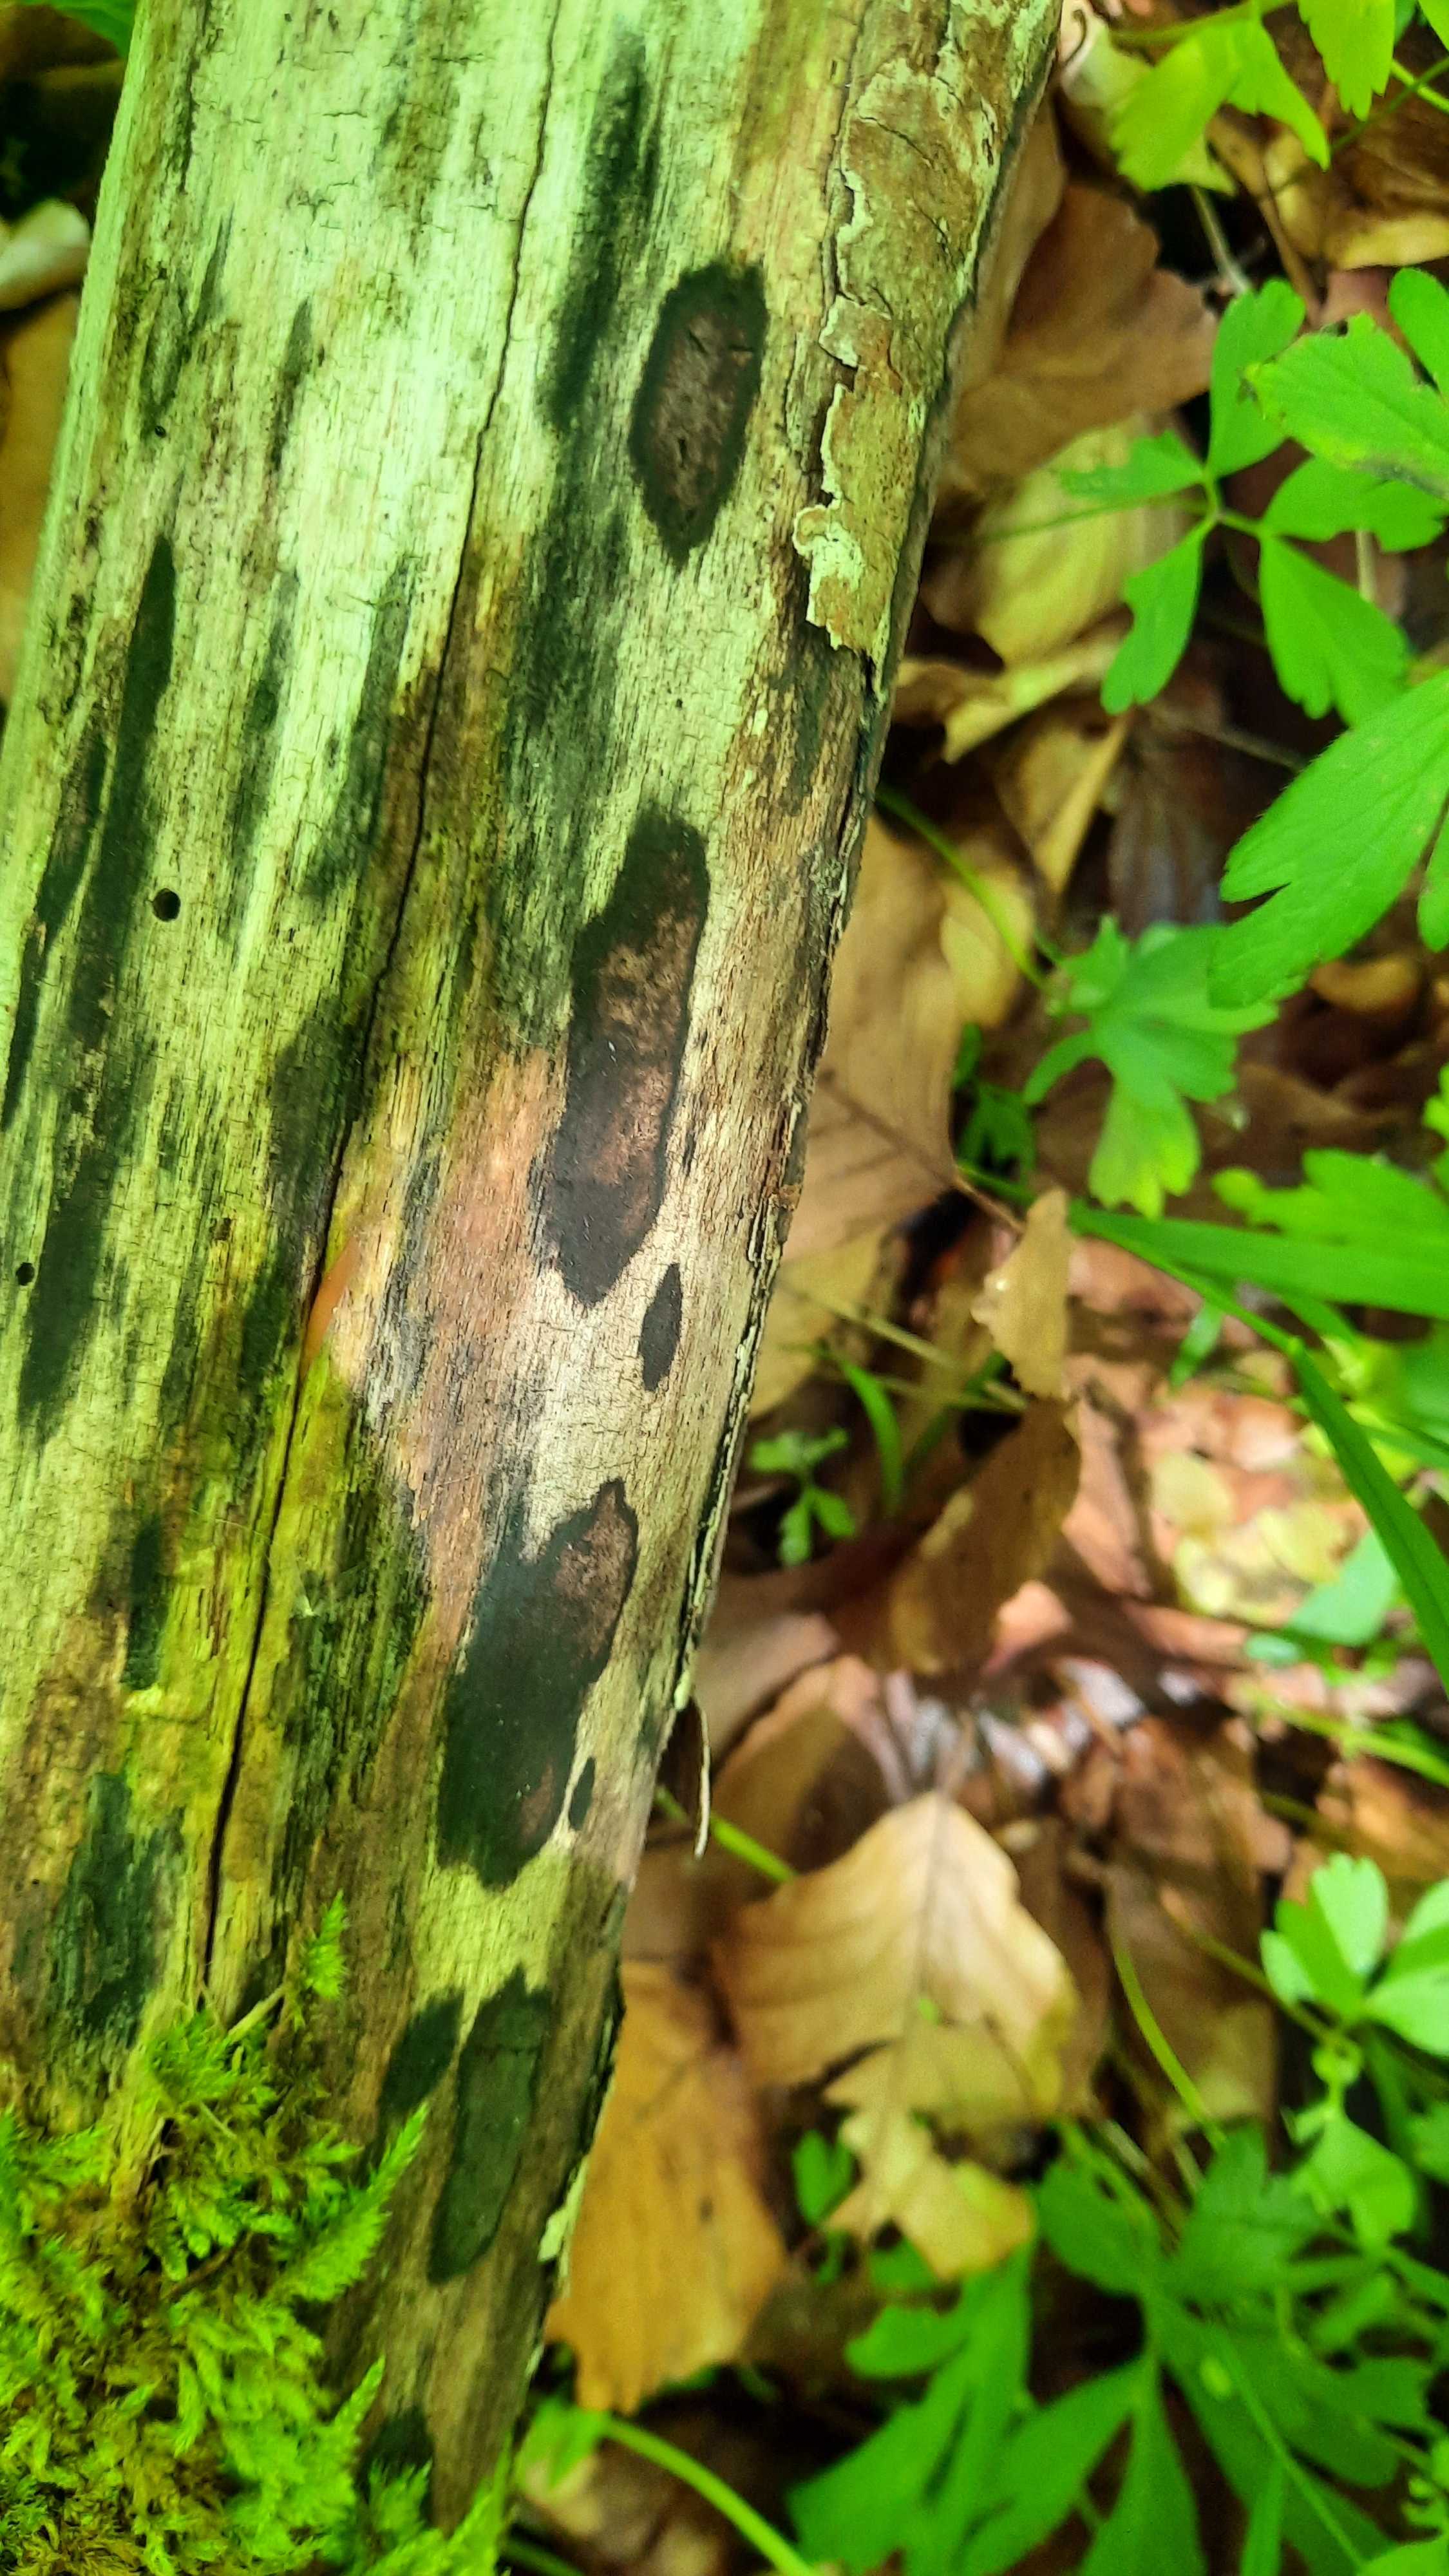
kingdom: Fungi
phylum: Ascomycota
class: Sordariomycetes
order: Xylariales
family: Hypoxylaceae
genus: Hypoxylon
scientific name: Hypoxylon petriniae
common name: nedsænket kulbær
